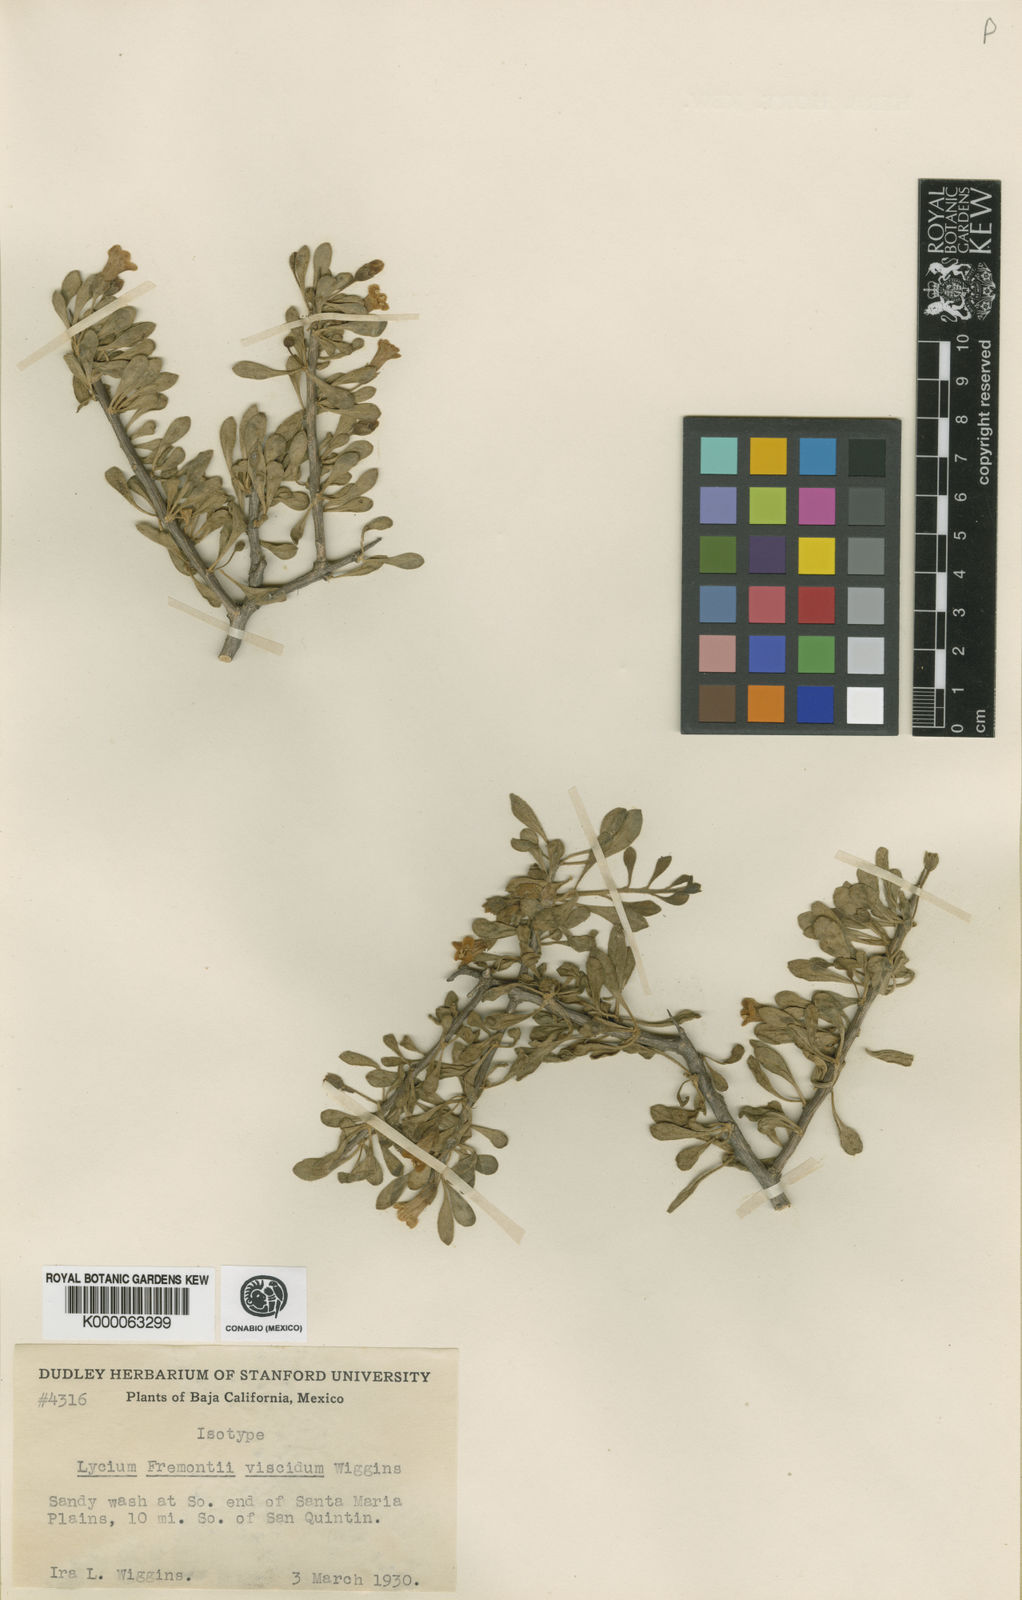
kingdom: Plantae
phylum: Tracheophyta
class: Magnoliopsida
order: Solanales
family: Solanaceae
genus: Lycium
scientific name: Lycium fremontii
